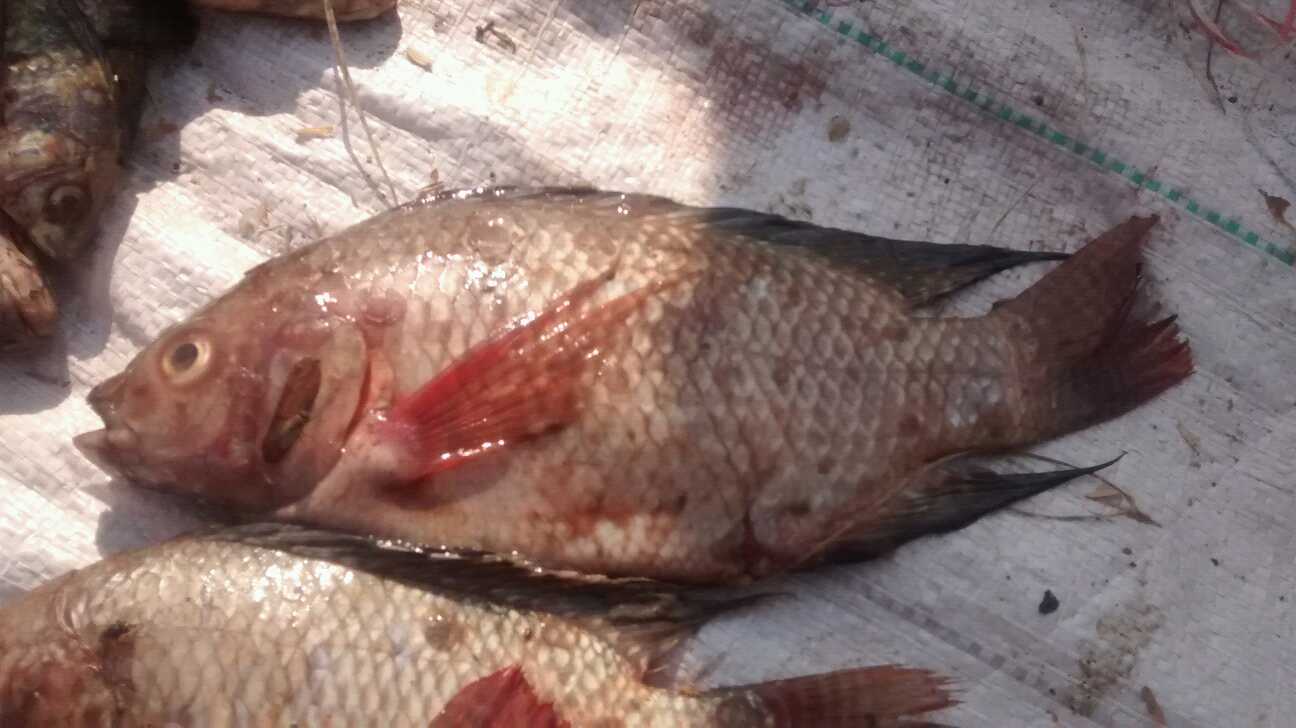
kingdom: Animalia
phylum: Chordata
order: Perciformes
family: Cichlidae
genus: Oreochromis
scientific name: Oreochromis jipe
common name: Jipe tilapia
